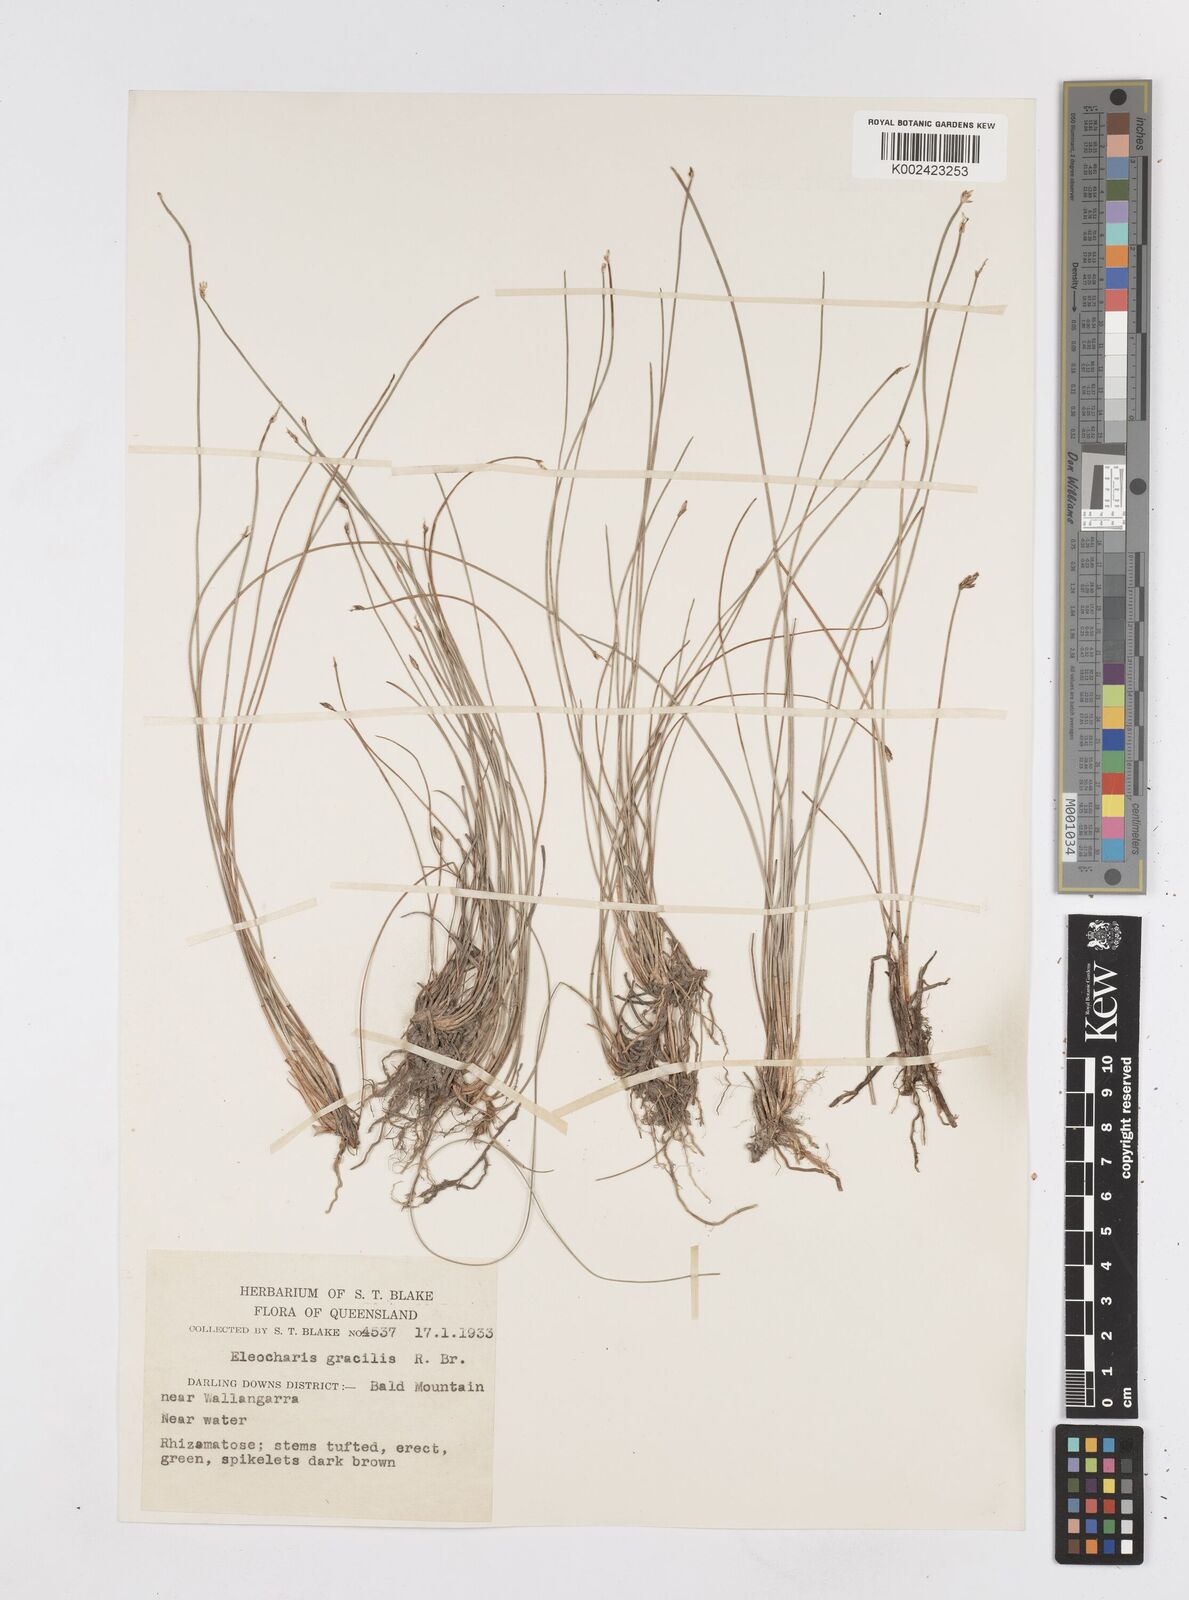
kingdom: Plantae
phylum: Tracheophyta
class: Liliopsida
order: Poales
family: Cyperaceae
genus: Eleocharis
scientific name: Eleocharis multicaulis
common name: Many-stalked spike-rush
